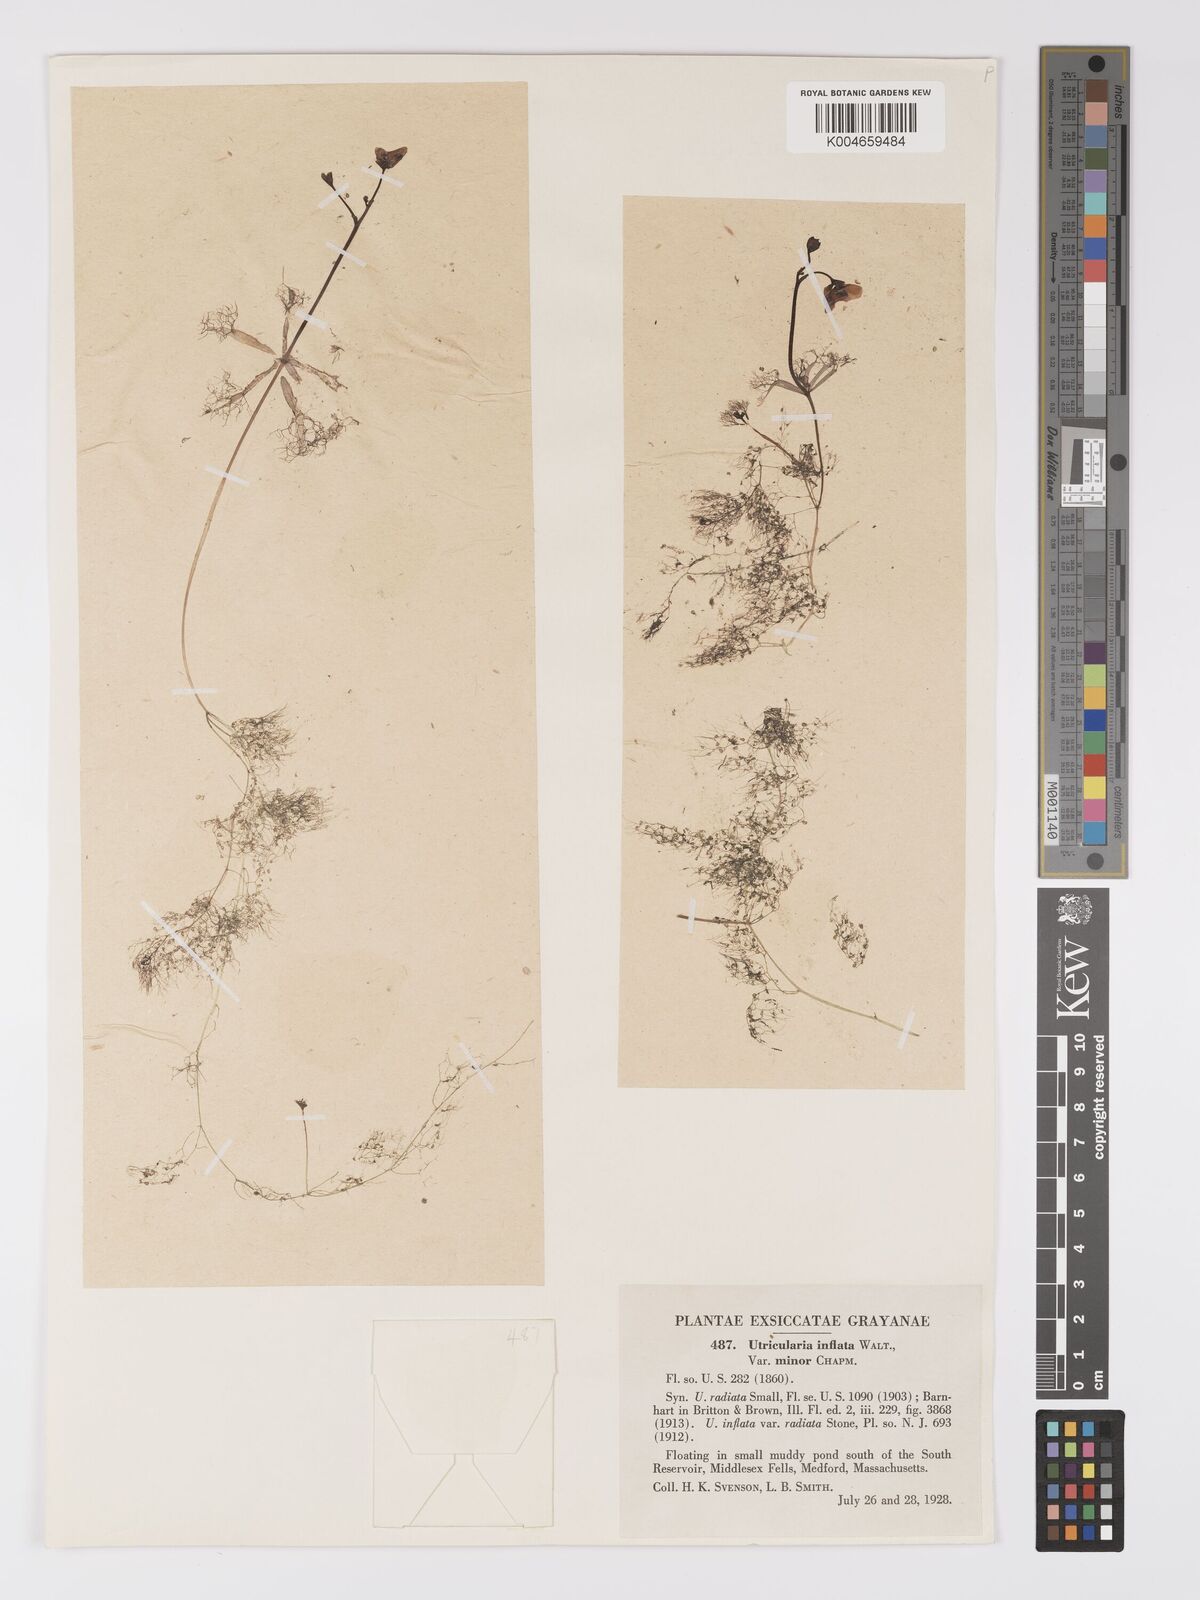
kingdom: Plantae
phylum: Tracheophyta
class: Magnoliopsida
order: Lamiales
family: Lentibulariaceae
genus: Utricularia
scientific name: Utricularia radiata
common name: Floating bladderwort
